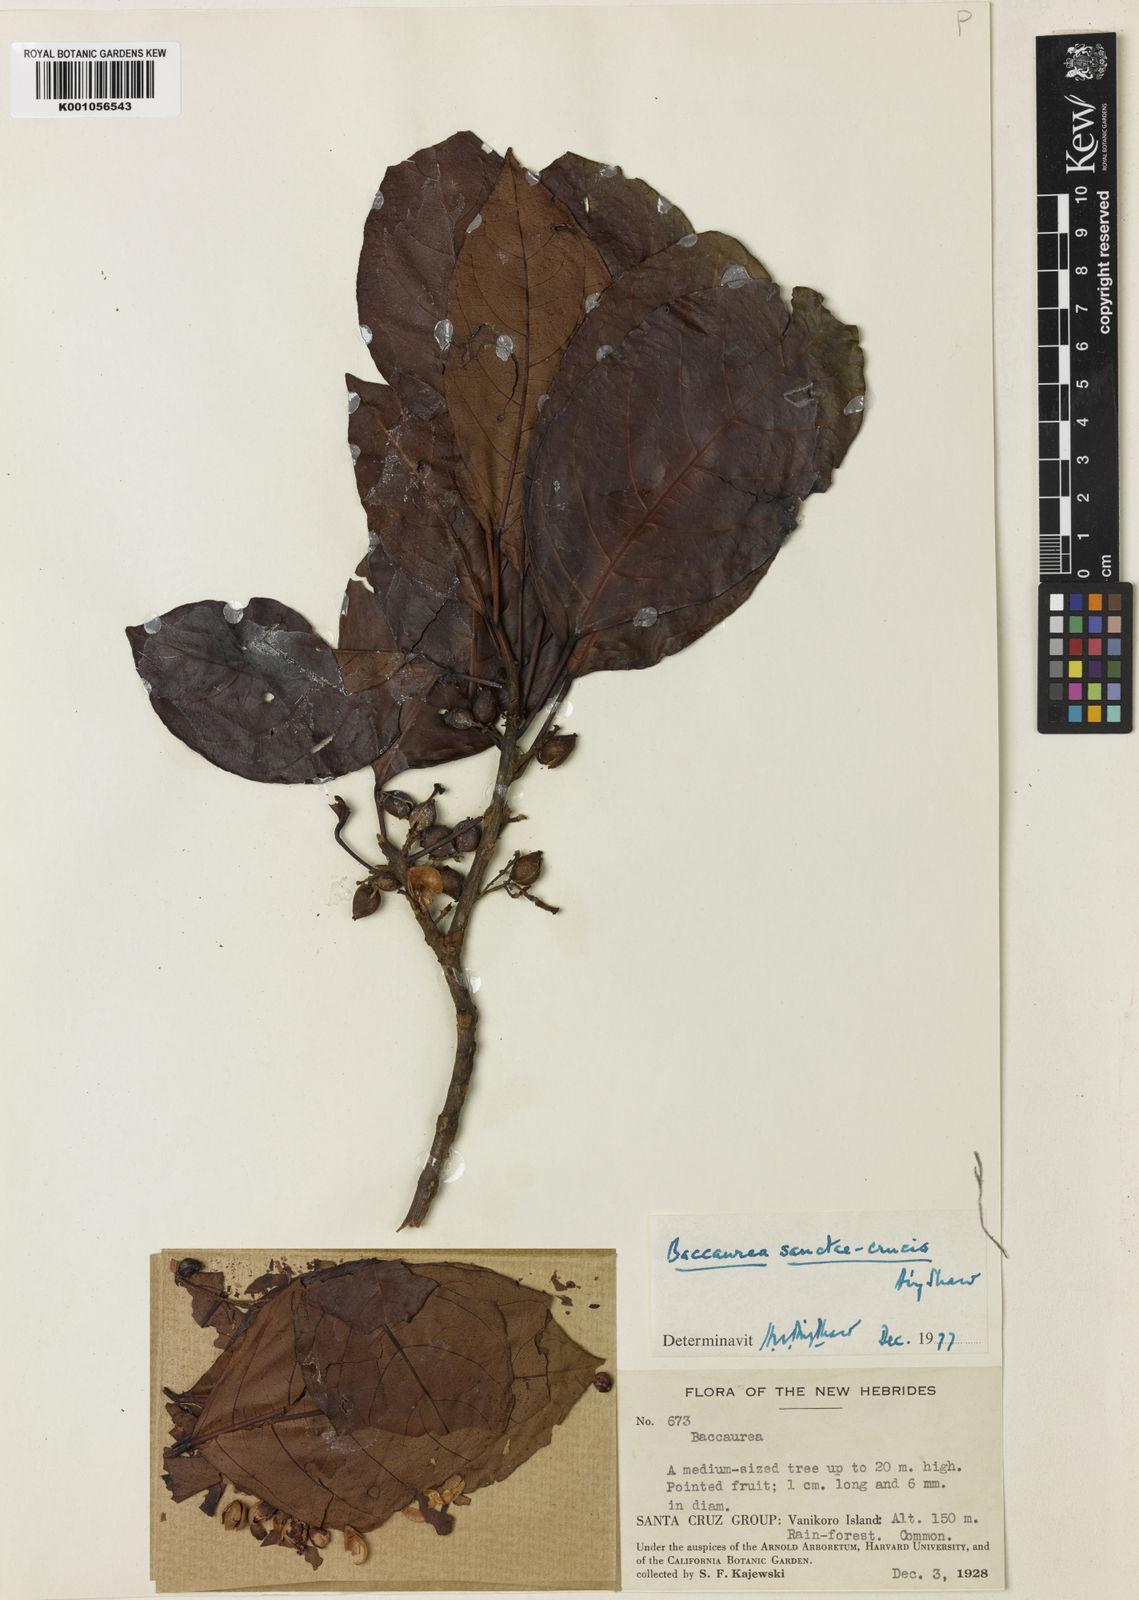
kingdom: Plantae
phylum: Tracheophyta
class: Magnoliopsida
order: Malpighiales
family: Phyllanthaceae
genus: Nothobaccaurea
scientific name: Nothobaccaurea
